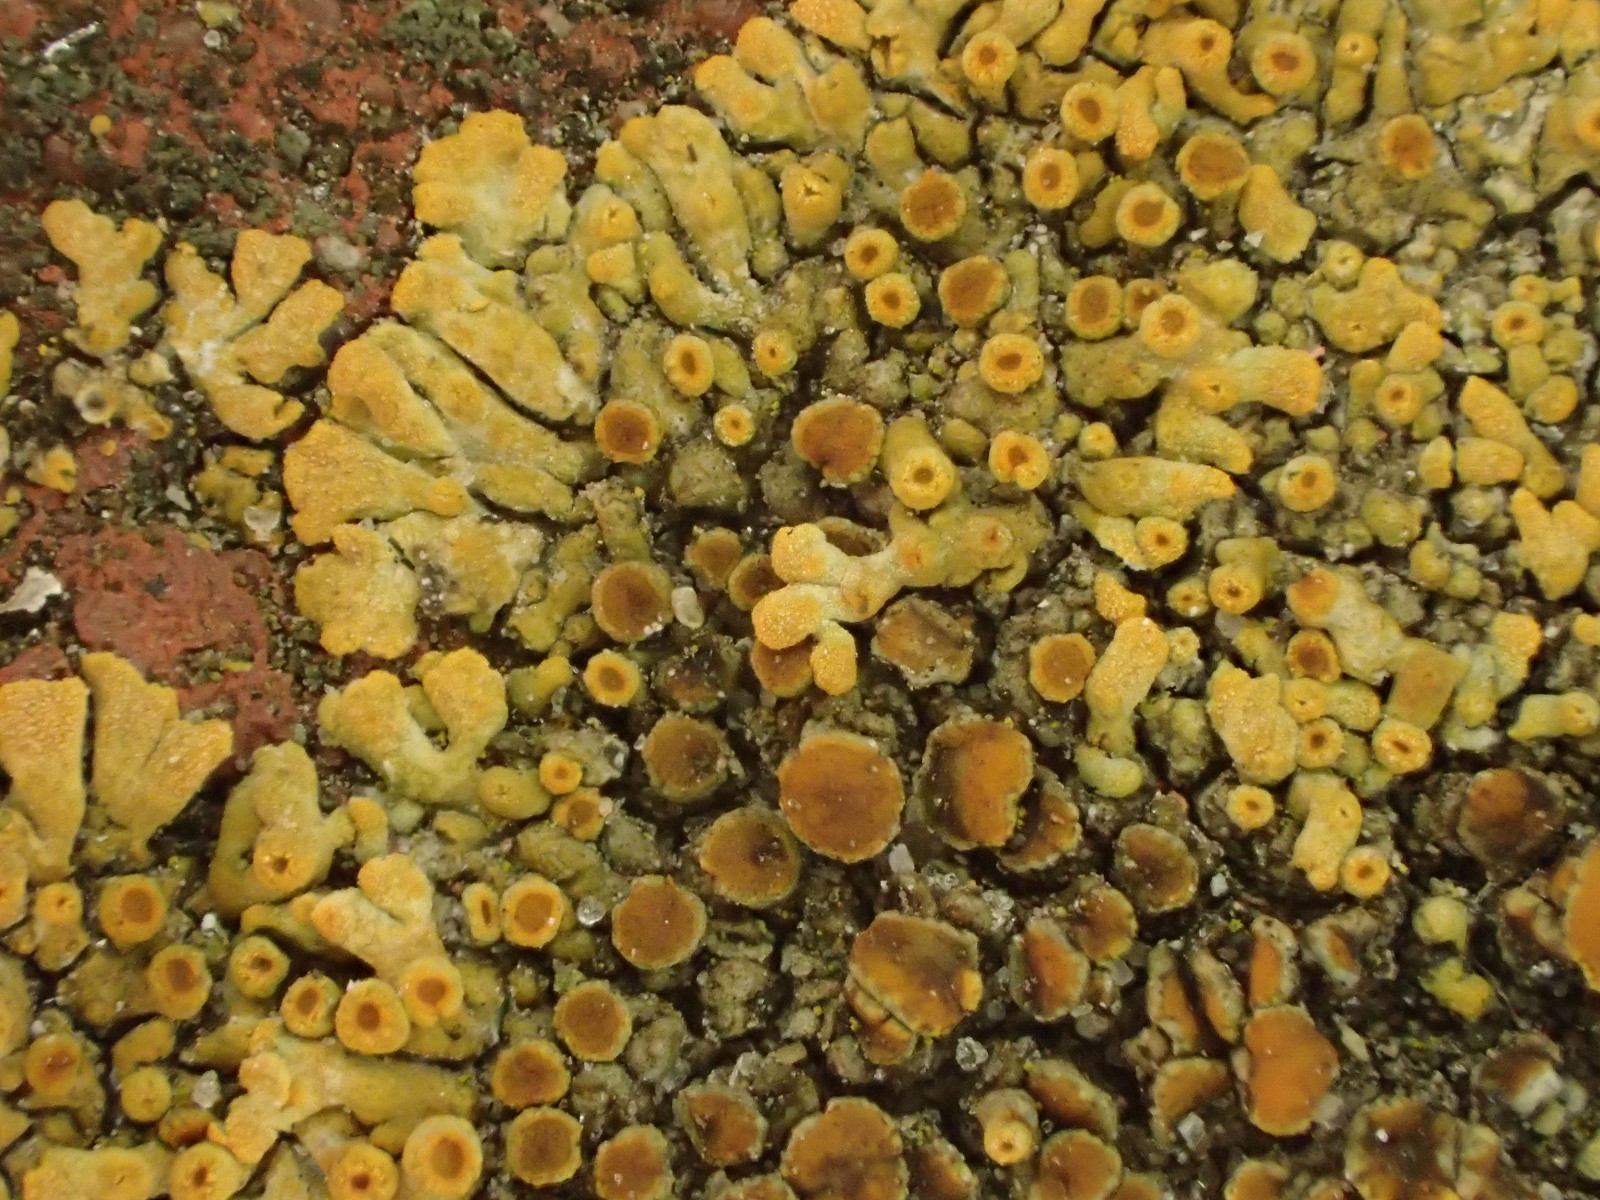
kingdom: Fungi
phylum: Ascomycota
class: Lecanoromycetes
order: Teloschistales
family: Teloschistaceae
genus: Calogaya
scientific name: Calogaya decipiens
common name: knudret orangelav
